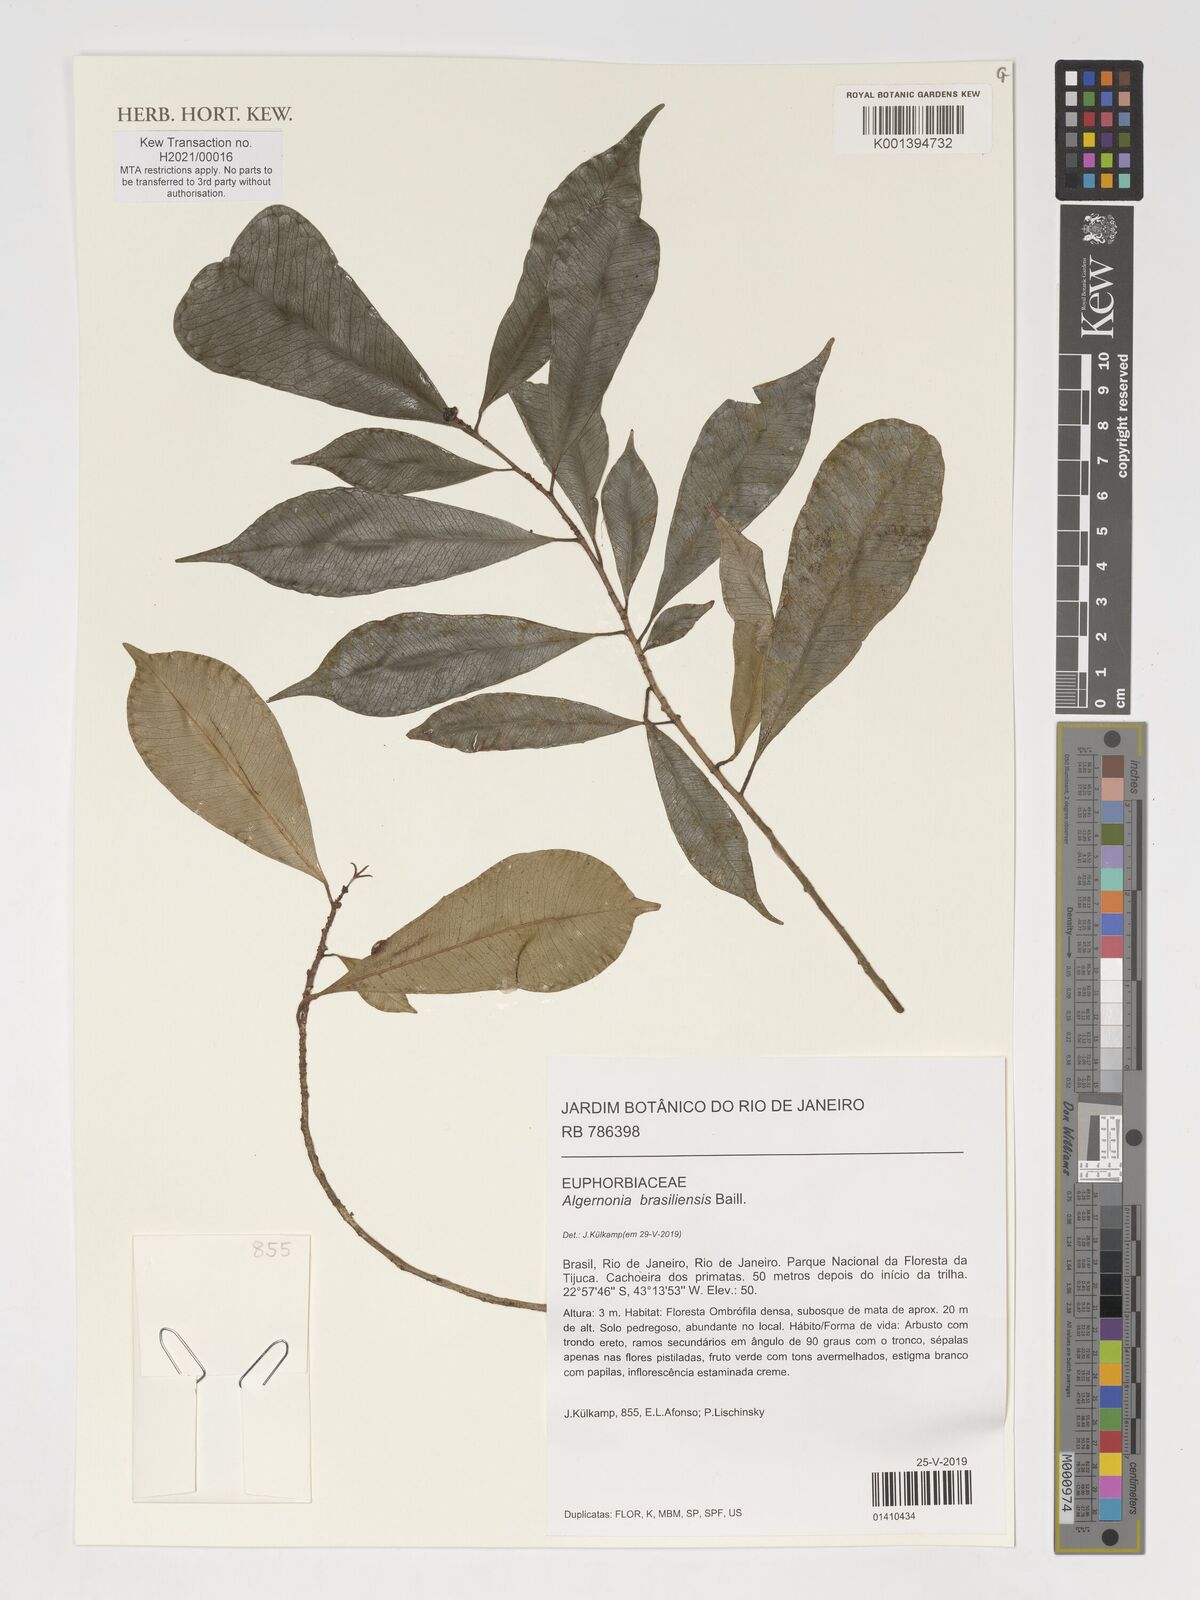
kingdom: Plantae
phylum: Tracheophyta
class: Magnoliopsida
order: Malpighiales
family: Euphorbiaceae
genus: Algernonia
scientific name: Algernonia brasiliensis
